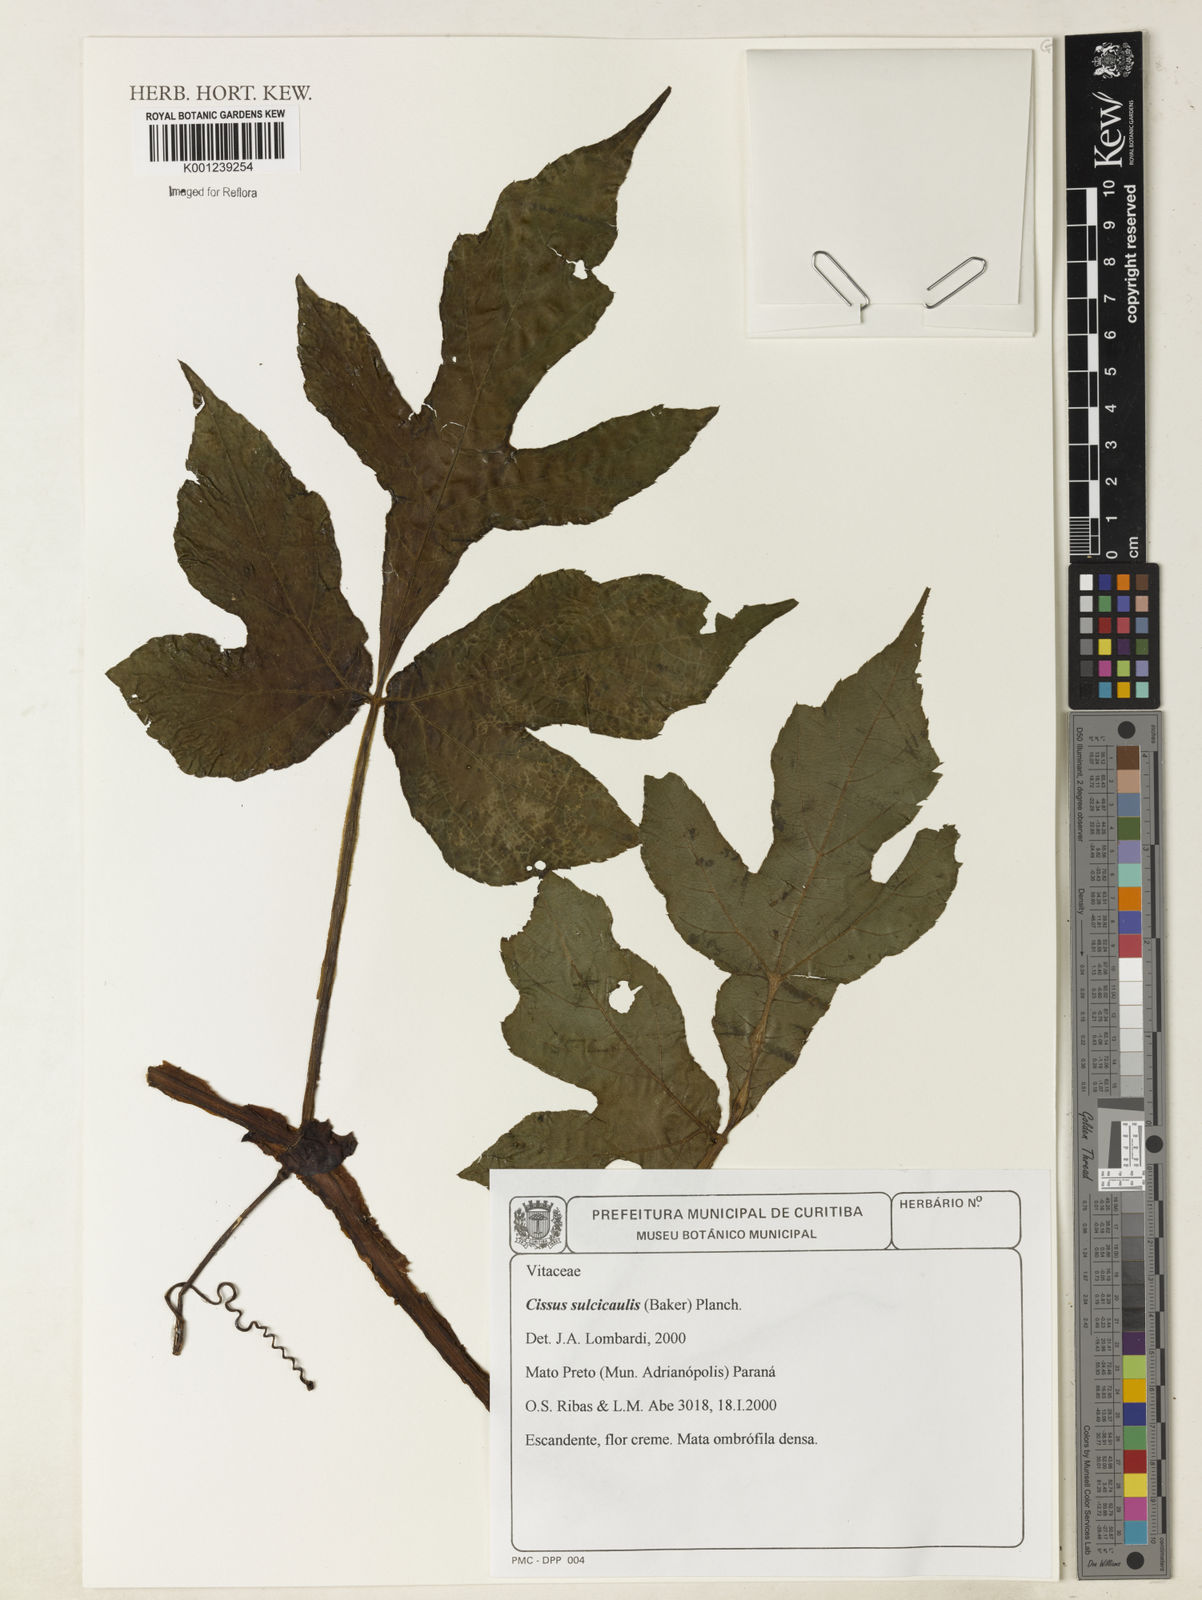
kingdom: Plantae
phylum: Tracheophyta
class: Magnoliopsida
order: Vitales
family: Vitaceae
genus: Cissus
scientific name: Cissus sulcicaulis
